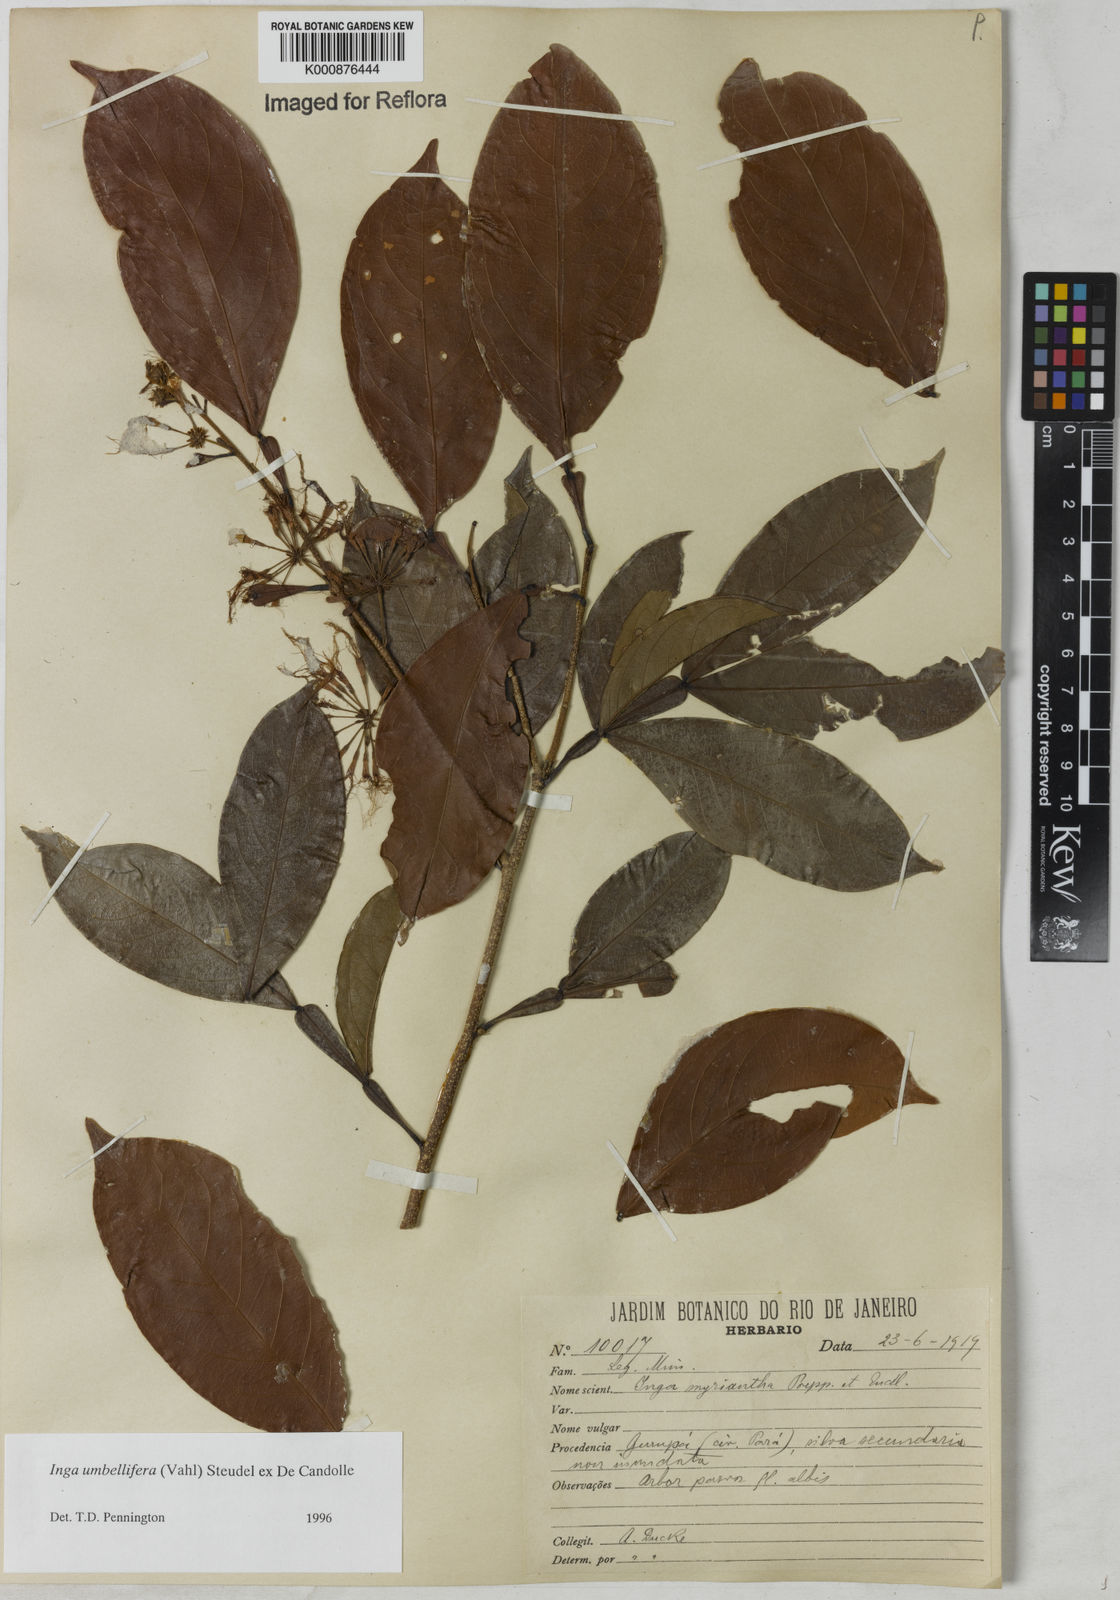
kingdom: Plantae
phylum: Tracheophyta
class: Magnoliopsida
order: Fabales
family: Fabaceae
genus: Inga
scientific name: Inga umbellifera
